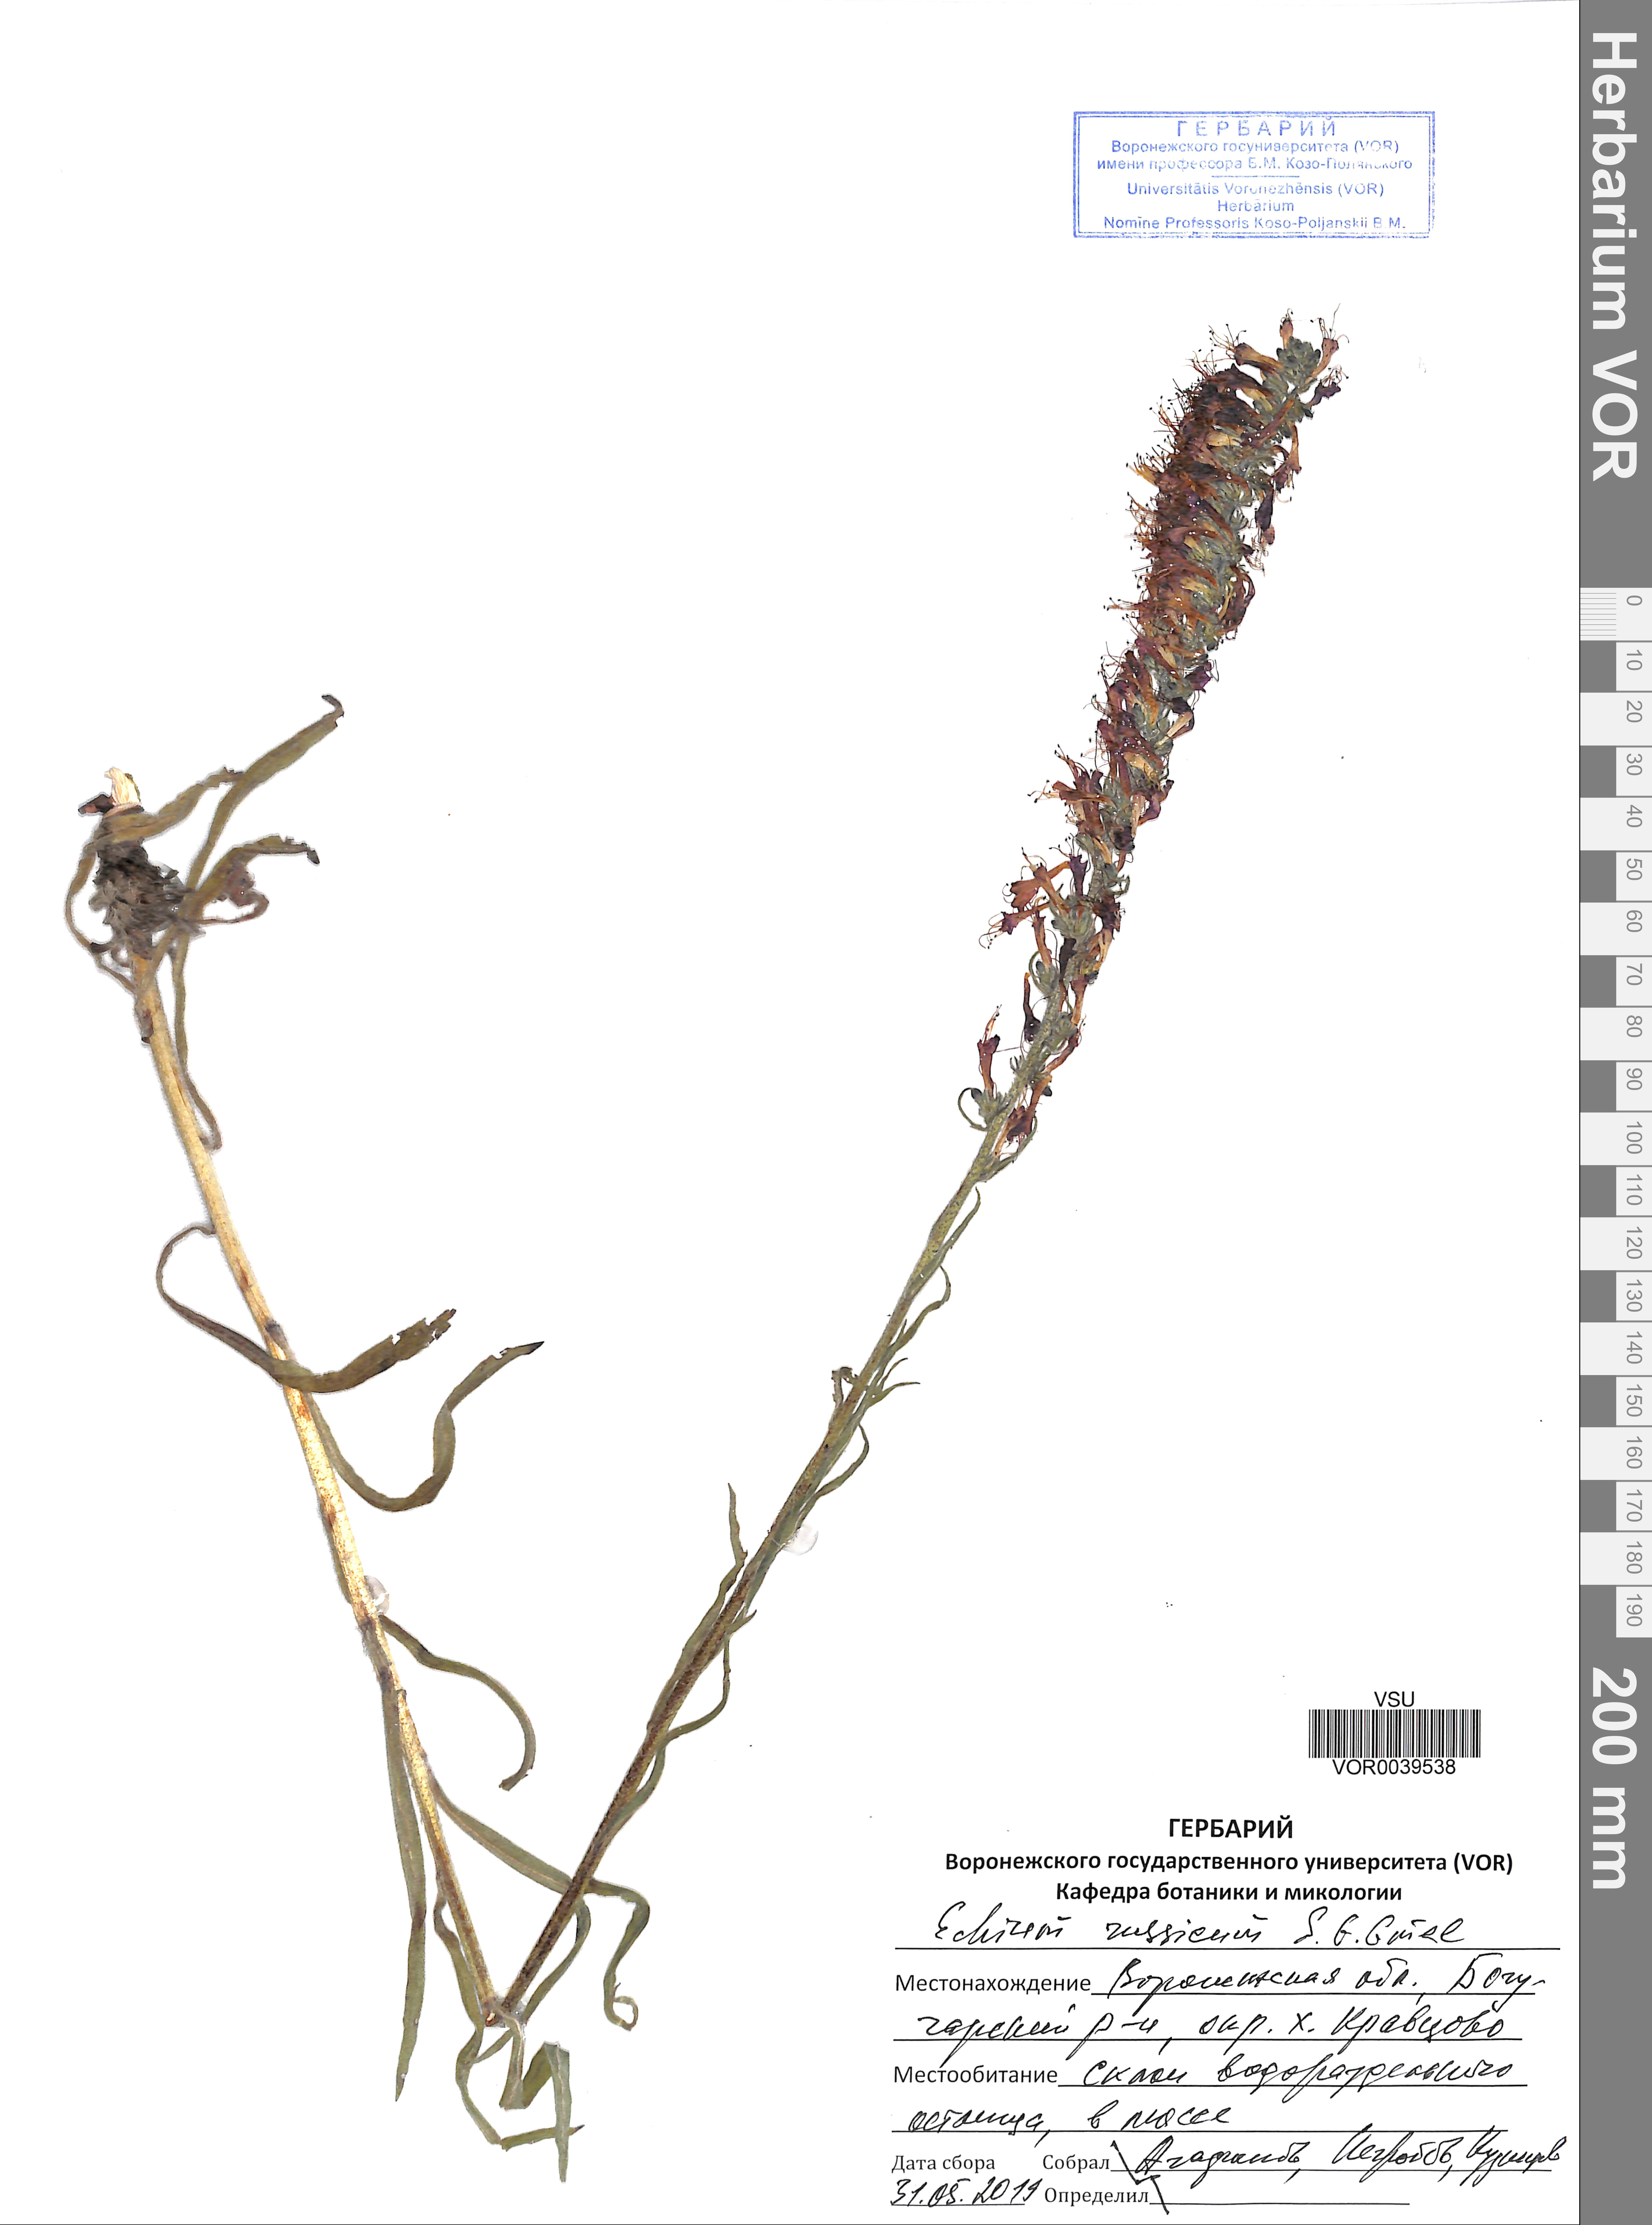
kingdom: Plantae
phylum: Tracheophyta
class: Magnoliopsida
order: Boraginales
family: Boraginaceae
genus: Pontechium
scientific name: Pontechium maculatum
